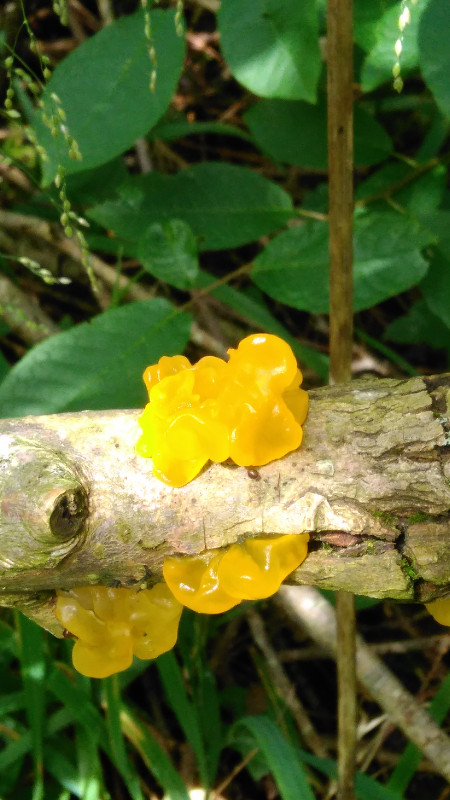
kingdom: Fungi
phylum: Basidiomycota
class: Tremellomycetes
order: Tremellales
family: Tremellaceae
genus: Tremella
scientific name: Tremella mesenterica
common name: gul bævresvamp
